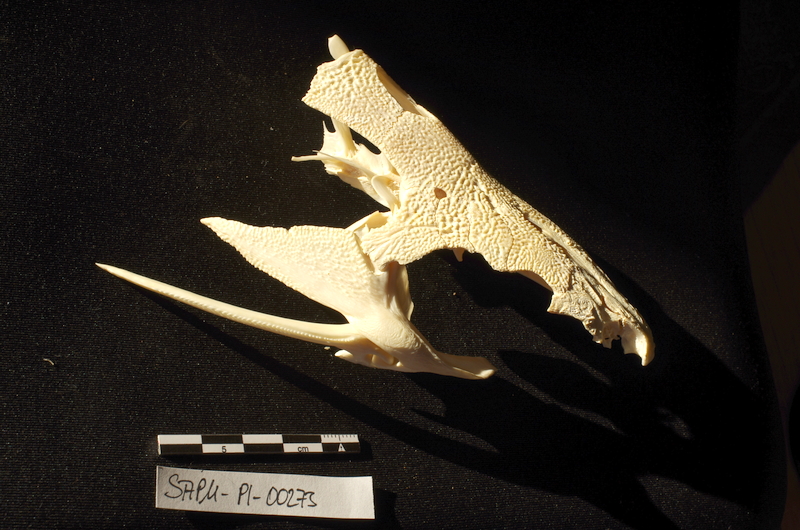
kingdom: Animalia
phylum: Chordata
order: Siluriformes
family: Mochokidae
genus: Synodontis
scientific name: Synodontis schall
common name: Wahrindi
